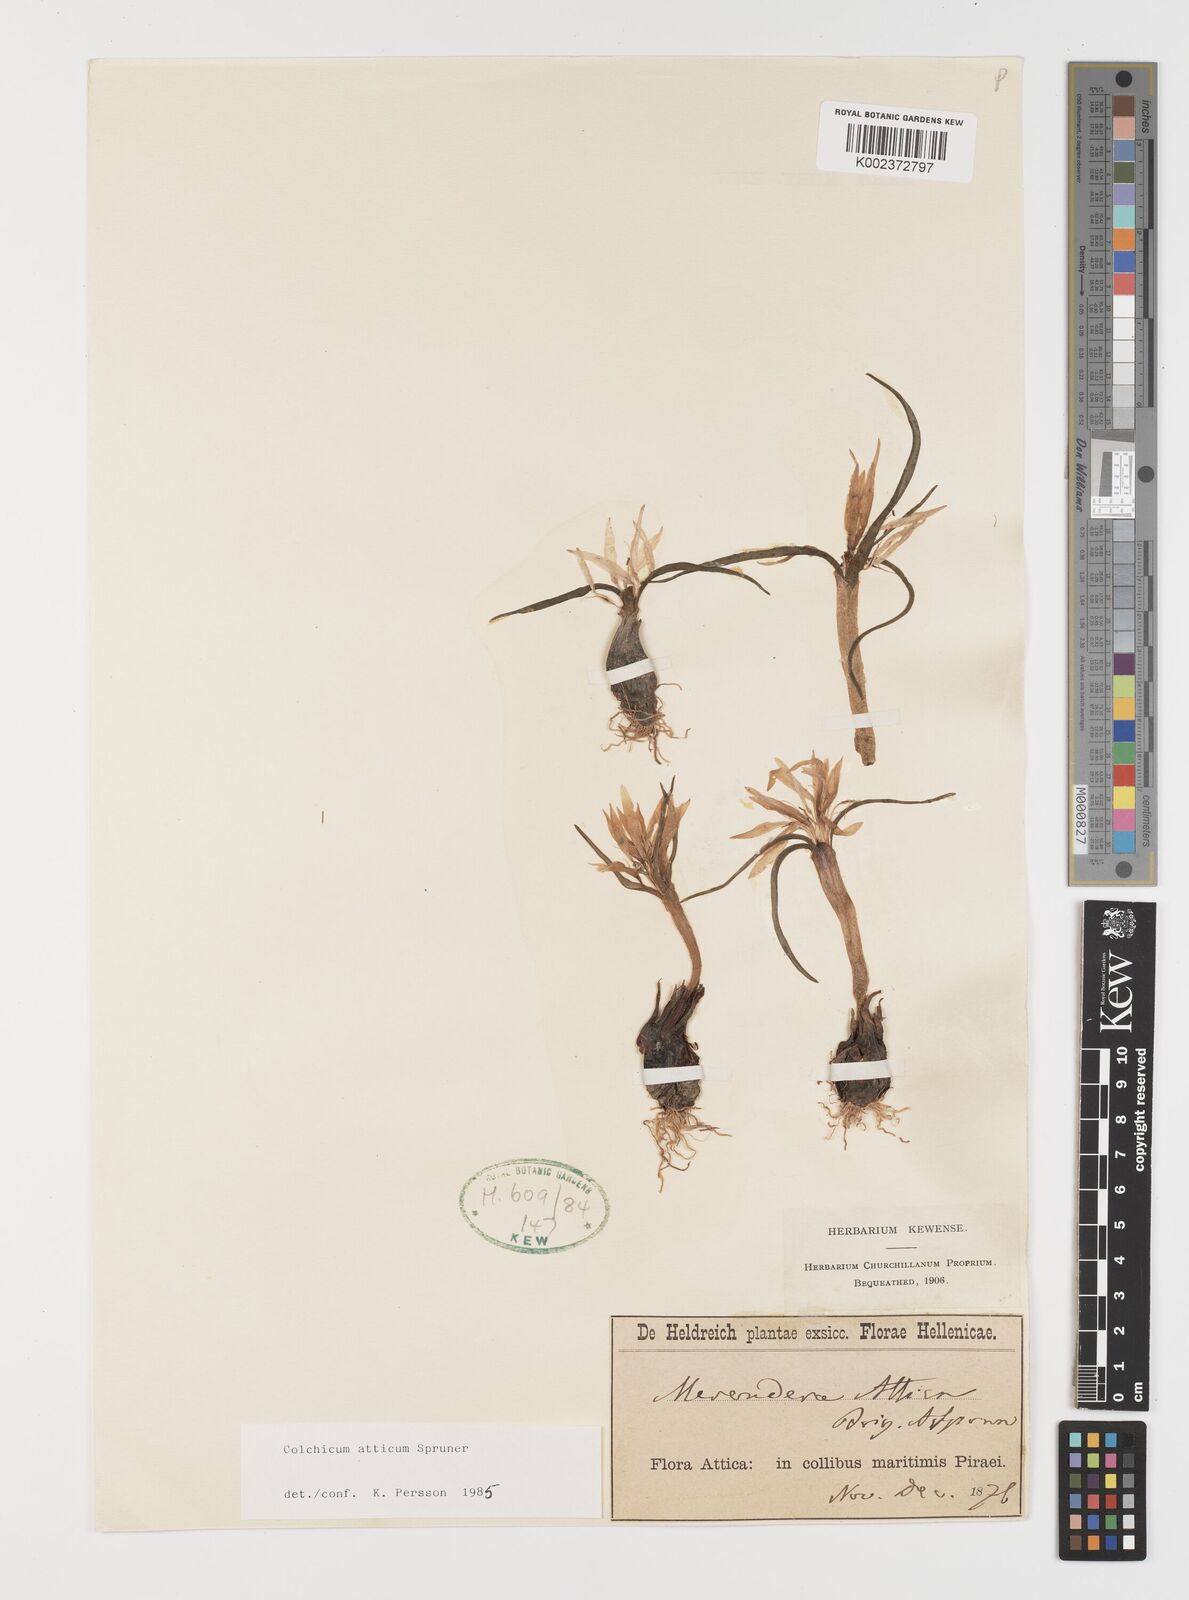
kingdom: Plantae
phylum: Tracheophyta
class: Liliopsida
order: Liliales
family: Colchicaceae
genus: Colchicum
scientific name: Colchicum atticum
